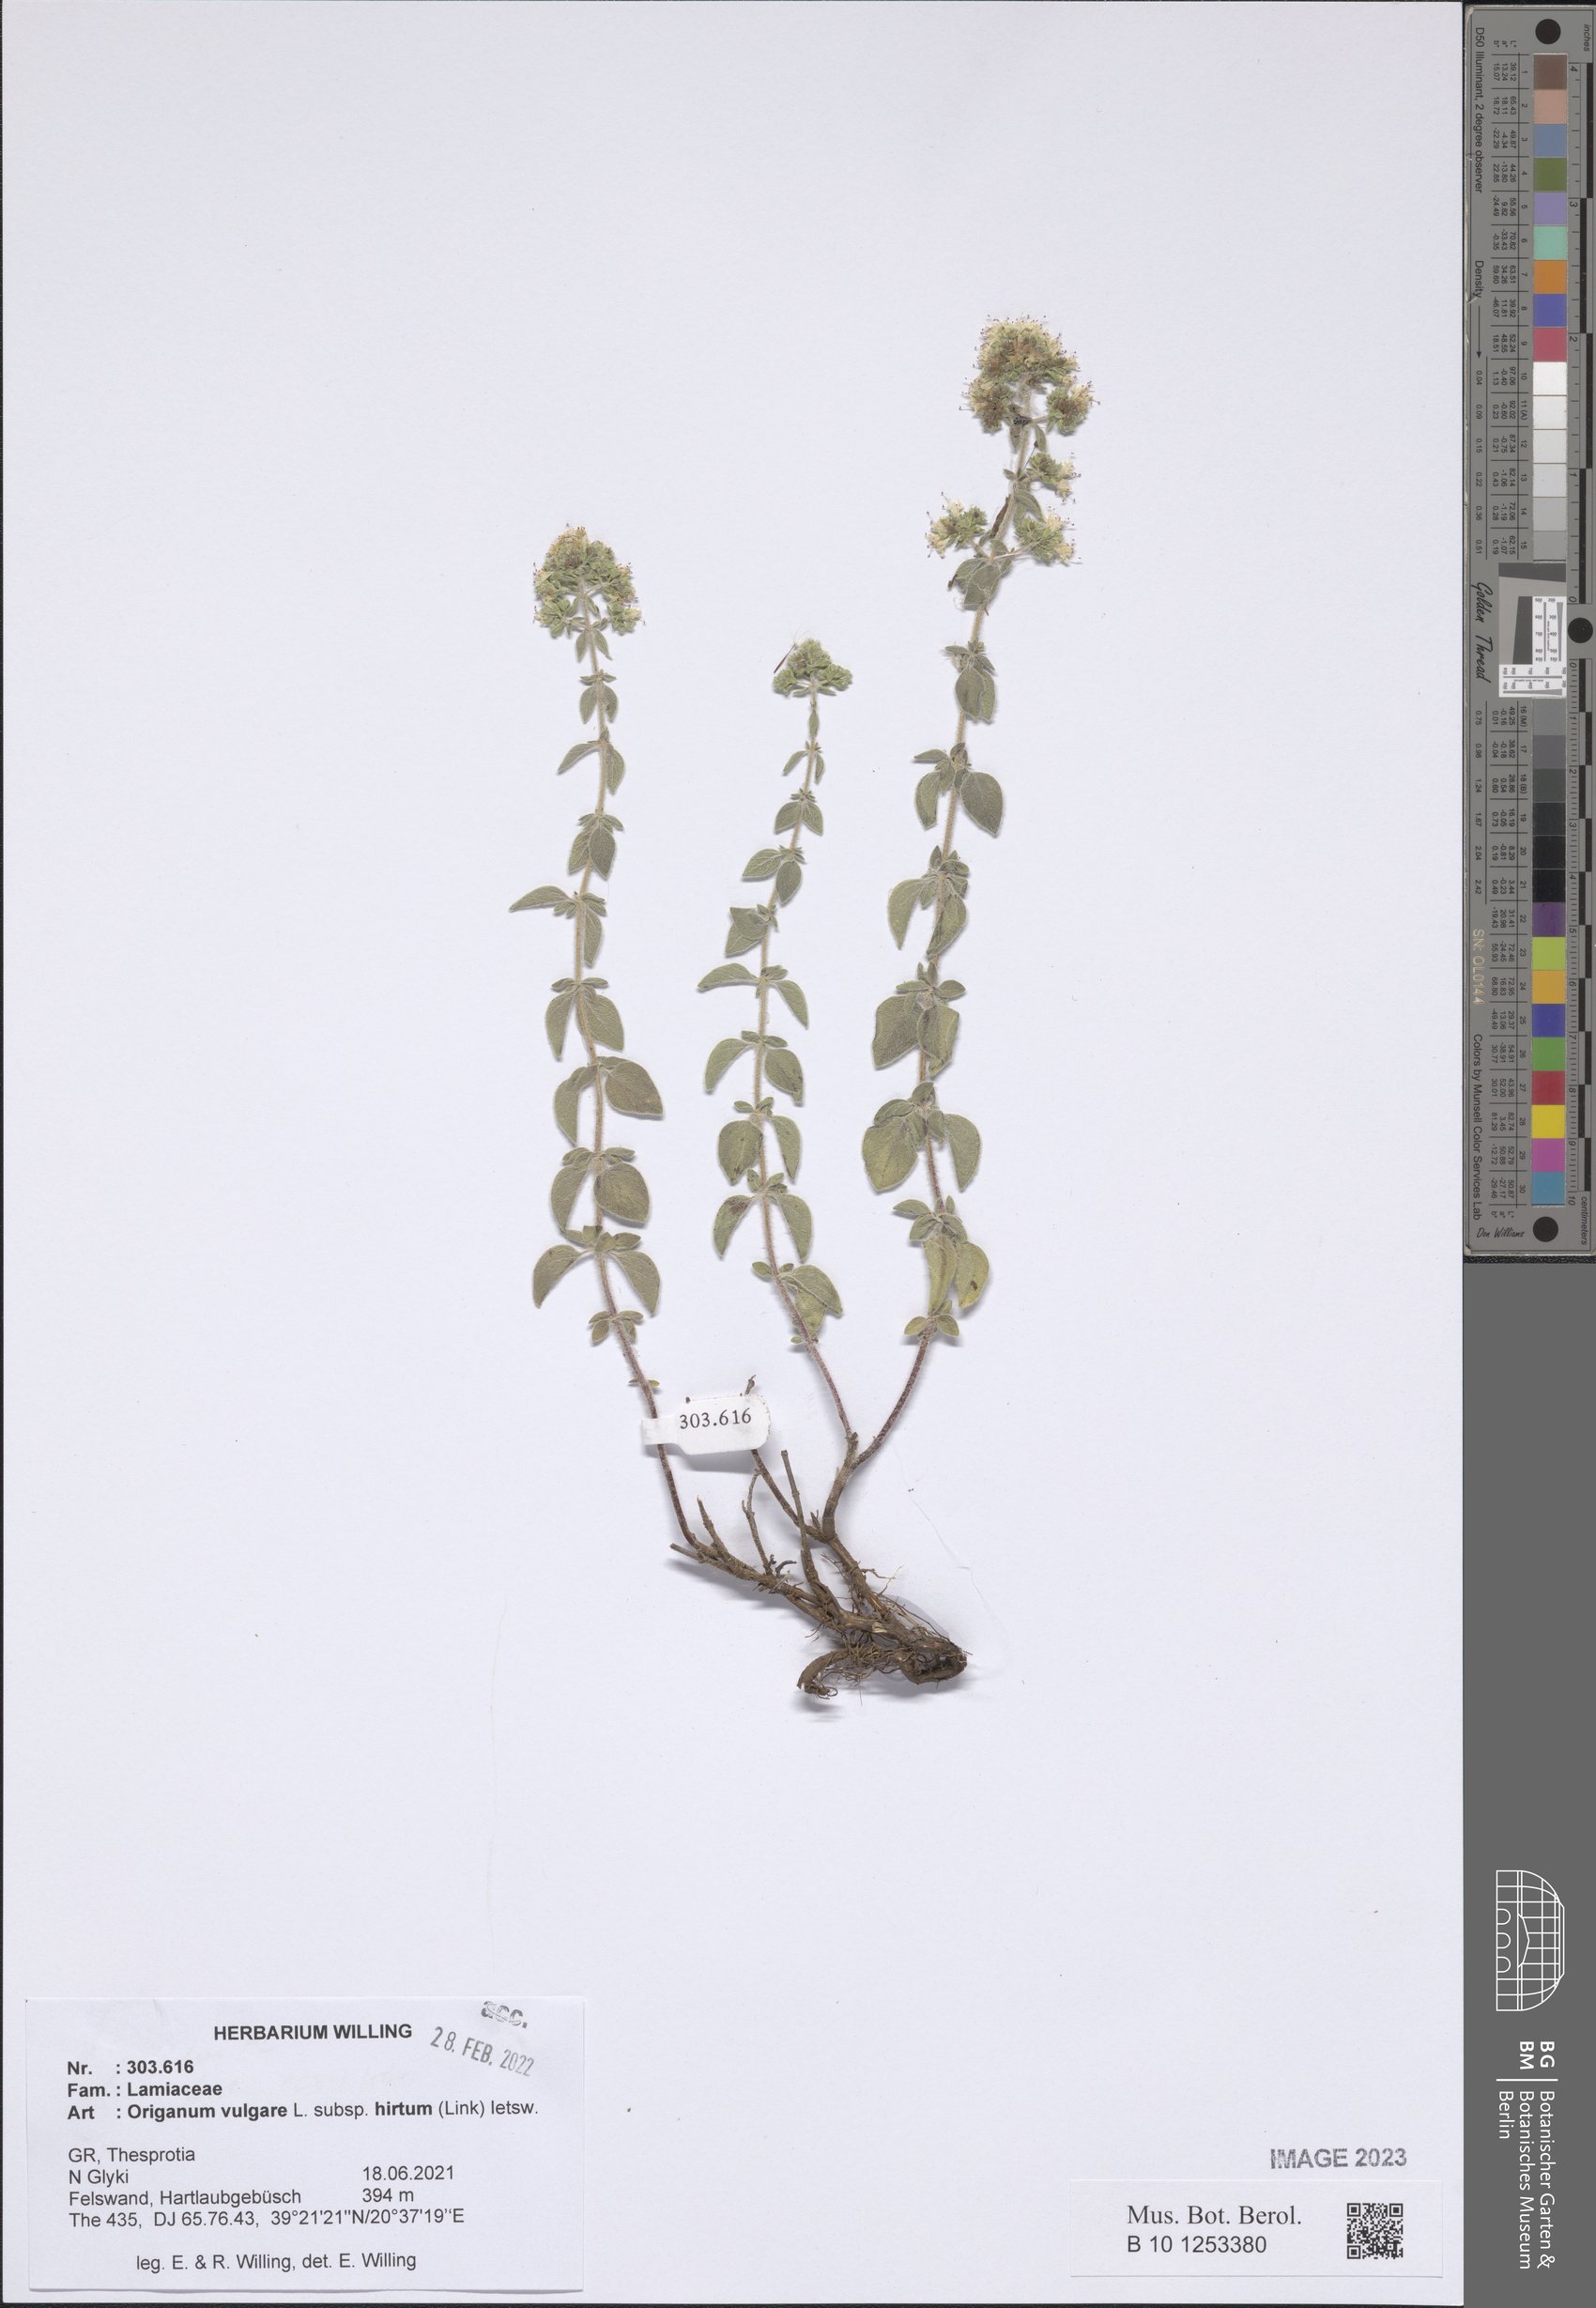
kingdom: Plantae
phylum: Tracheophyta
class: Magnoliopsida
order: Lamiales
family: Lamiaceae
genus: Origanum
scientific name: Origanum vulgare
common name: Wild marjoram
